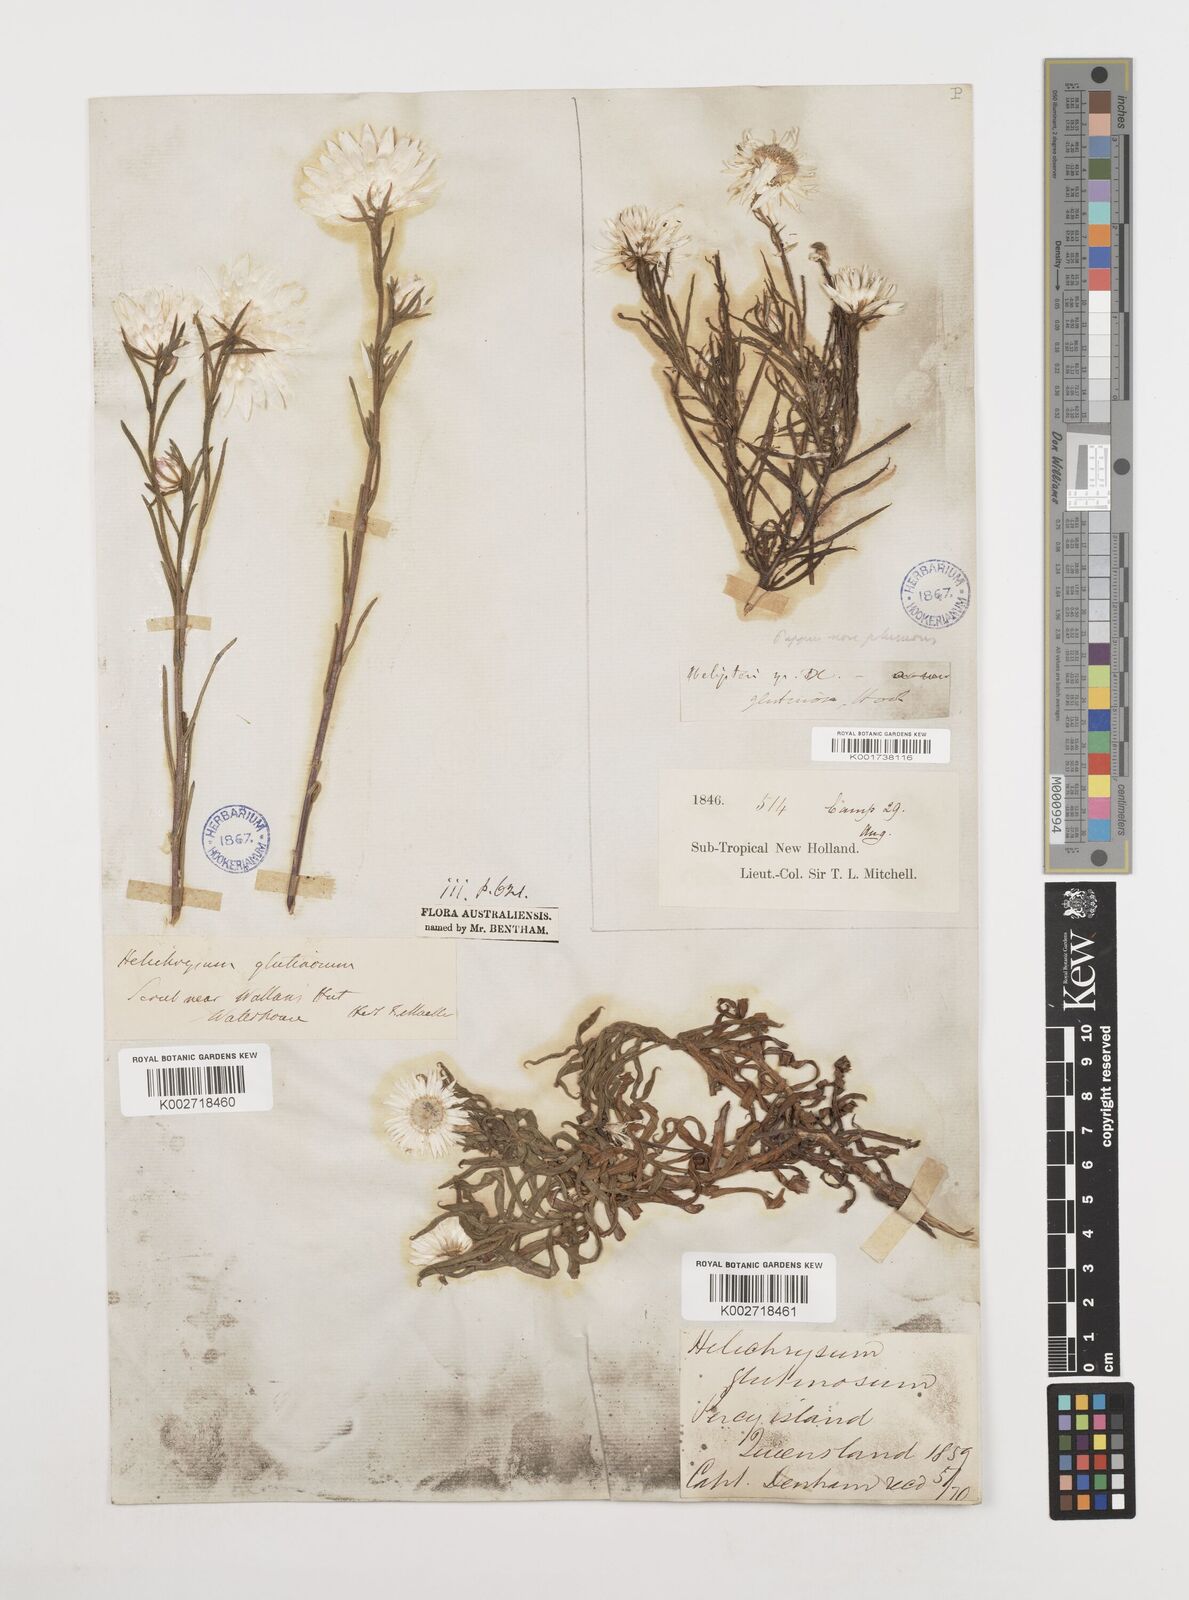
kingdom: Plantae
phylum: Tracheophyta
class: Magnoliopsida
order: Asterales
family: Asteraceae
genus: Coronidium
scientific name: Coronidium glutinosum
